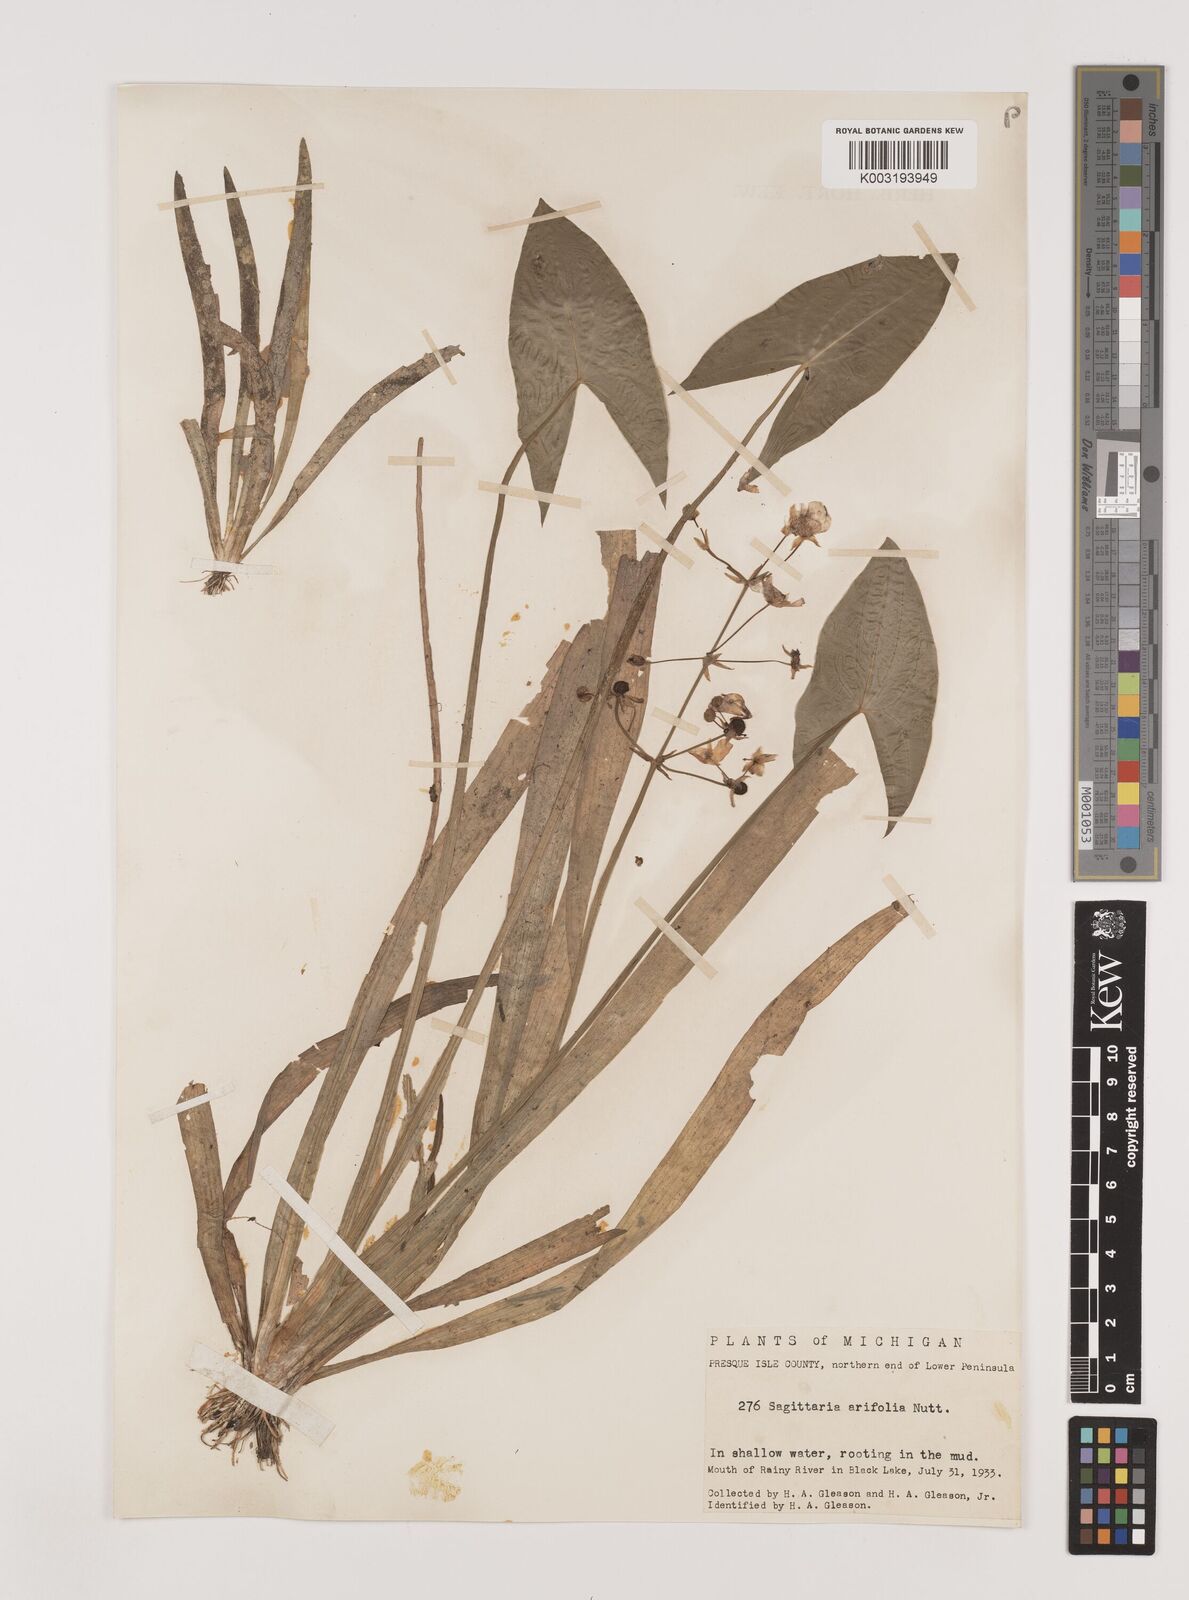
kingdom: Plantae
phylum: Tracheophyta
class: Liliopsida
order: Alismatales
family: Alismataceae
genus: Sagittaria
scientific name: Sagittaria cuneata
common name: Northern arrowhead
